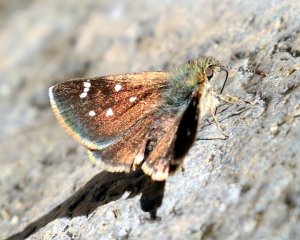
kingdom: Animalia
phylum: Arthropoda
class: Insecta
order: Lepidoptera
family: Hesperiidae
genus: Piruna
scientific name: Piruna haferniki
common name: Chisos Skipperling
